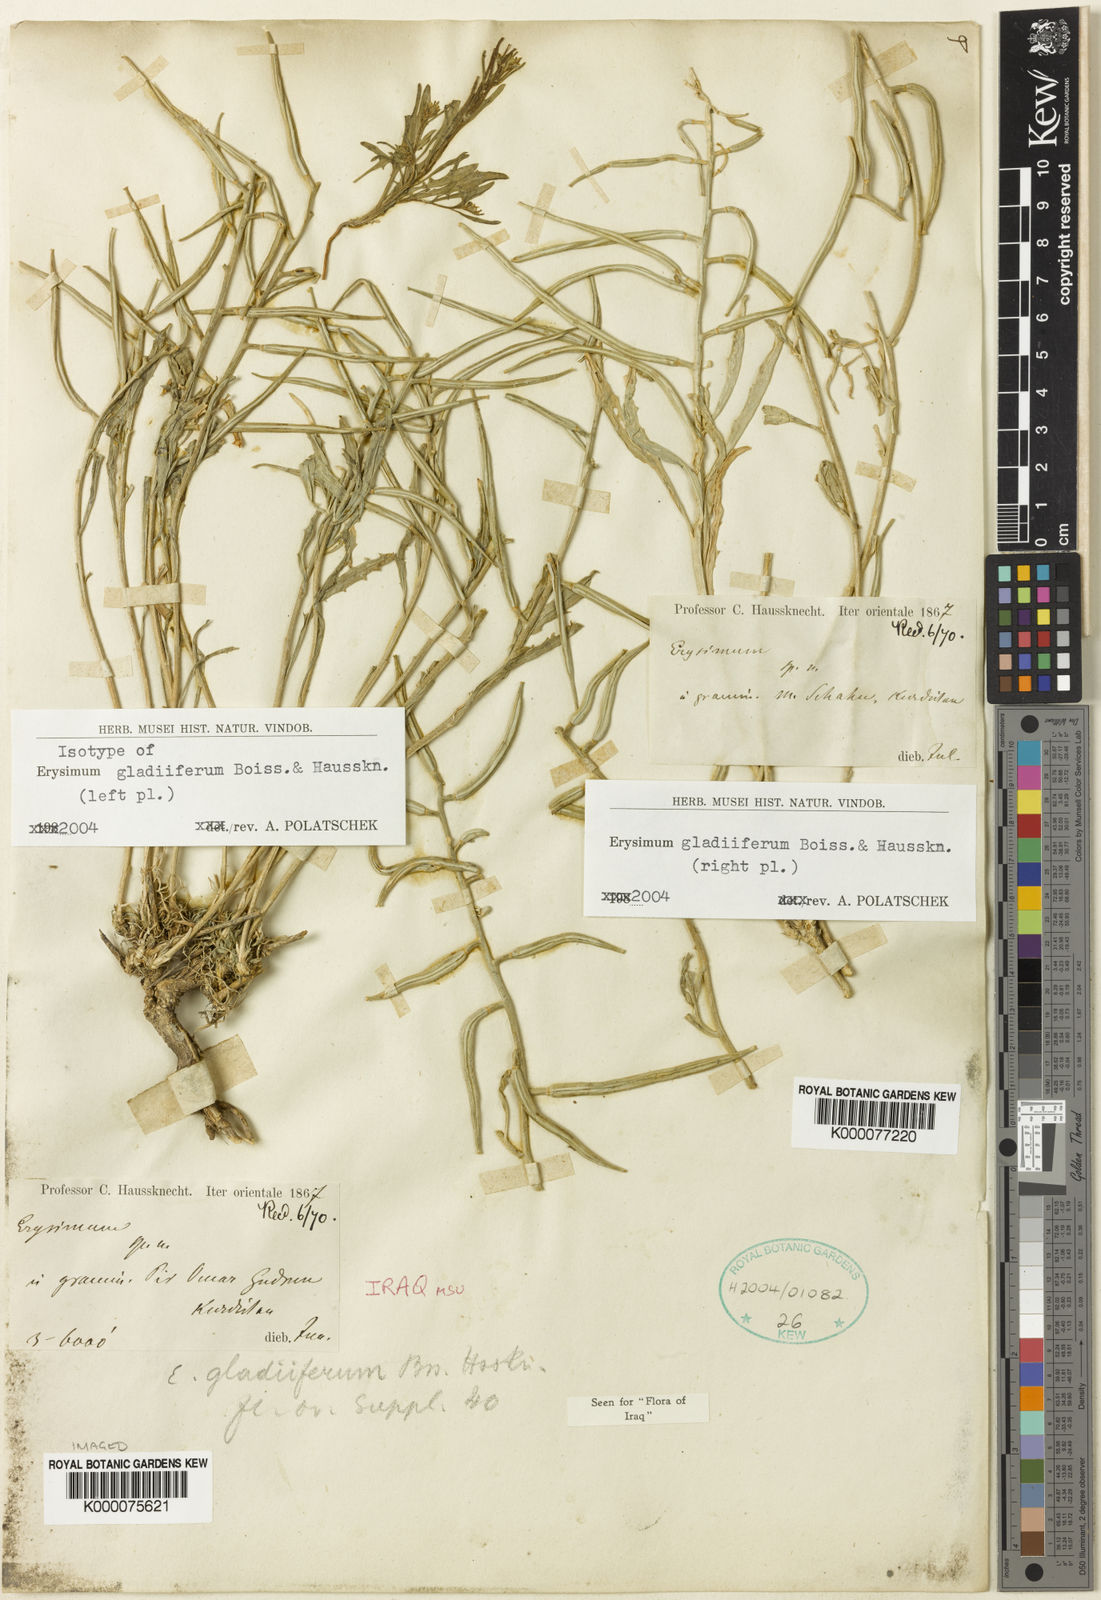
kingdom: Plantae
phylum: Tracheophyta
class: Magnoliopsida
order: Brassicales
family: Brassicaceae
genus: Erysimum
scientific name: Erysimum gladiiferum
